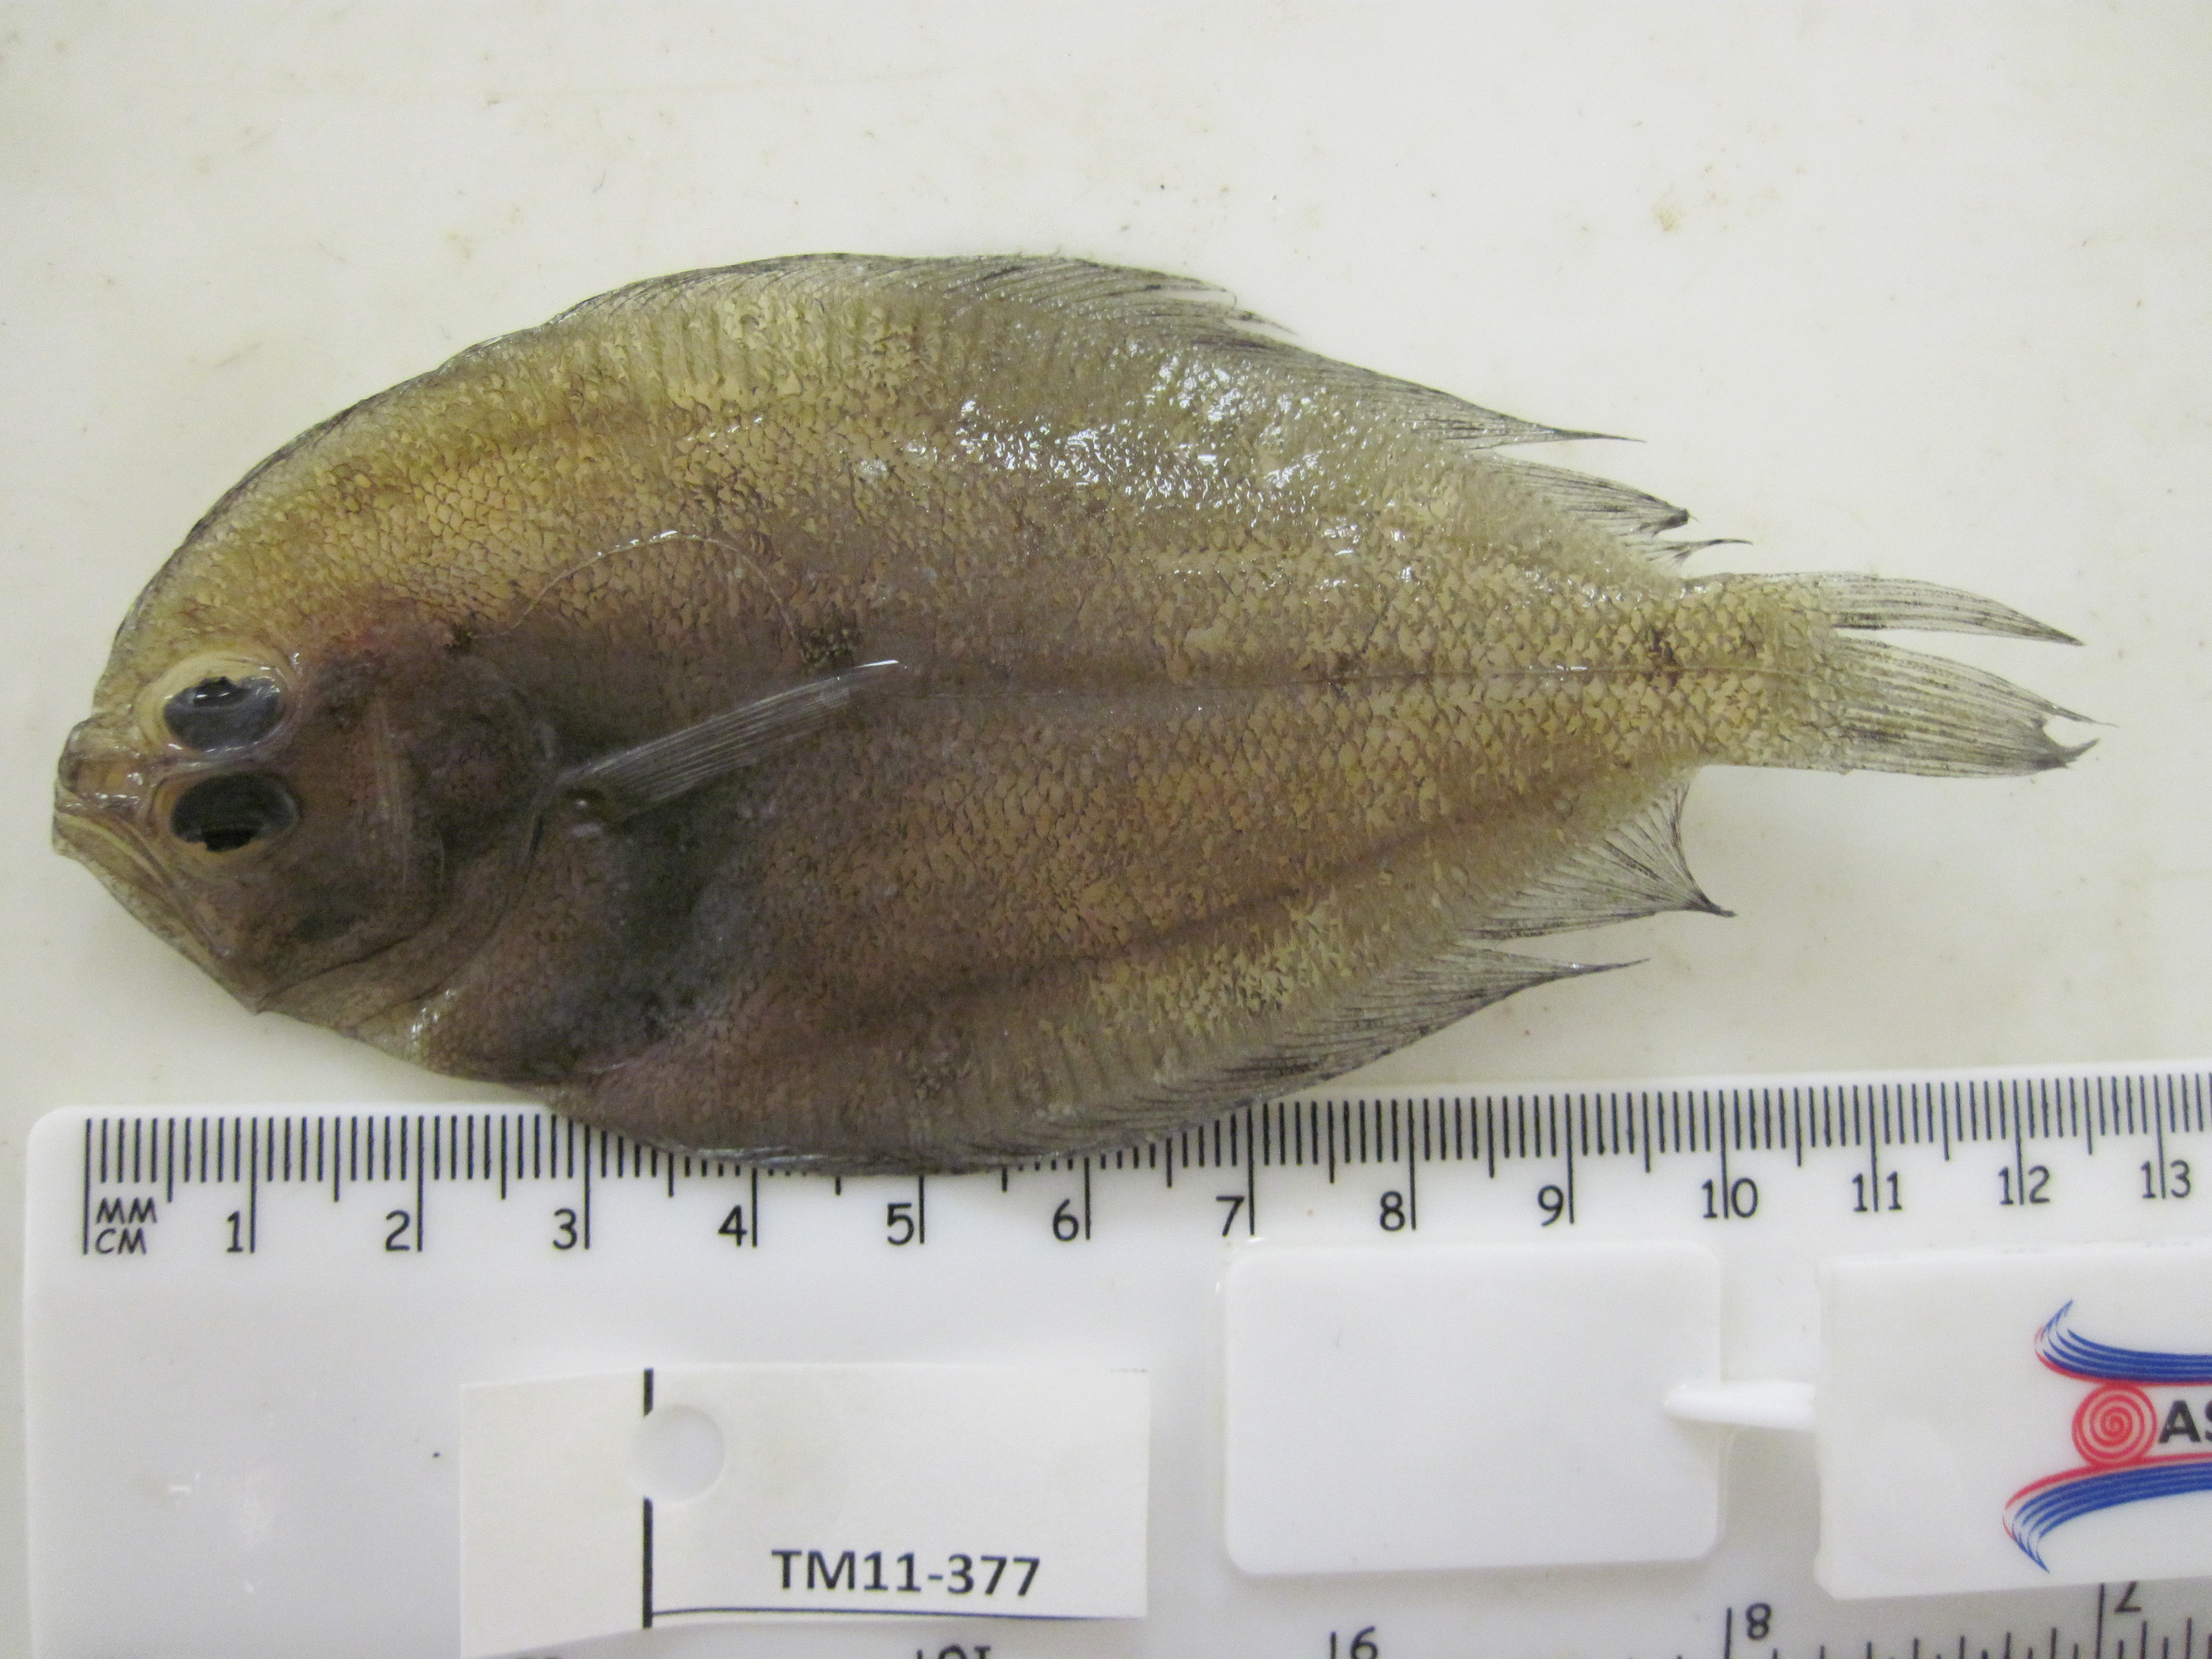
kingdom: Animalia
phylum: Chordata
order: Pleuronectiformes
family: Paralichthyidae
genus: Pseudorhombus
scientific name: Pseudorhombus elevatus
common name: Deep flounder
